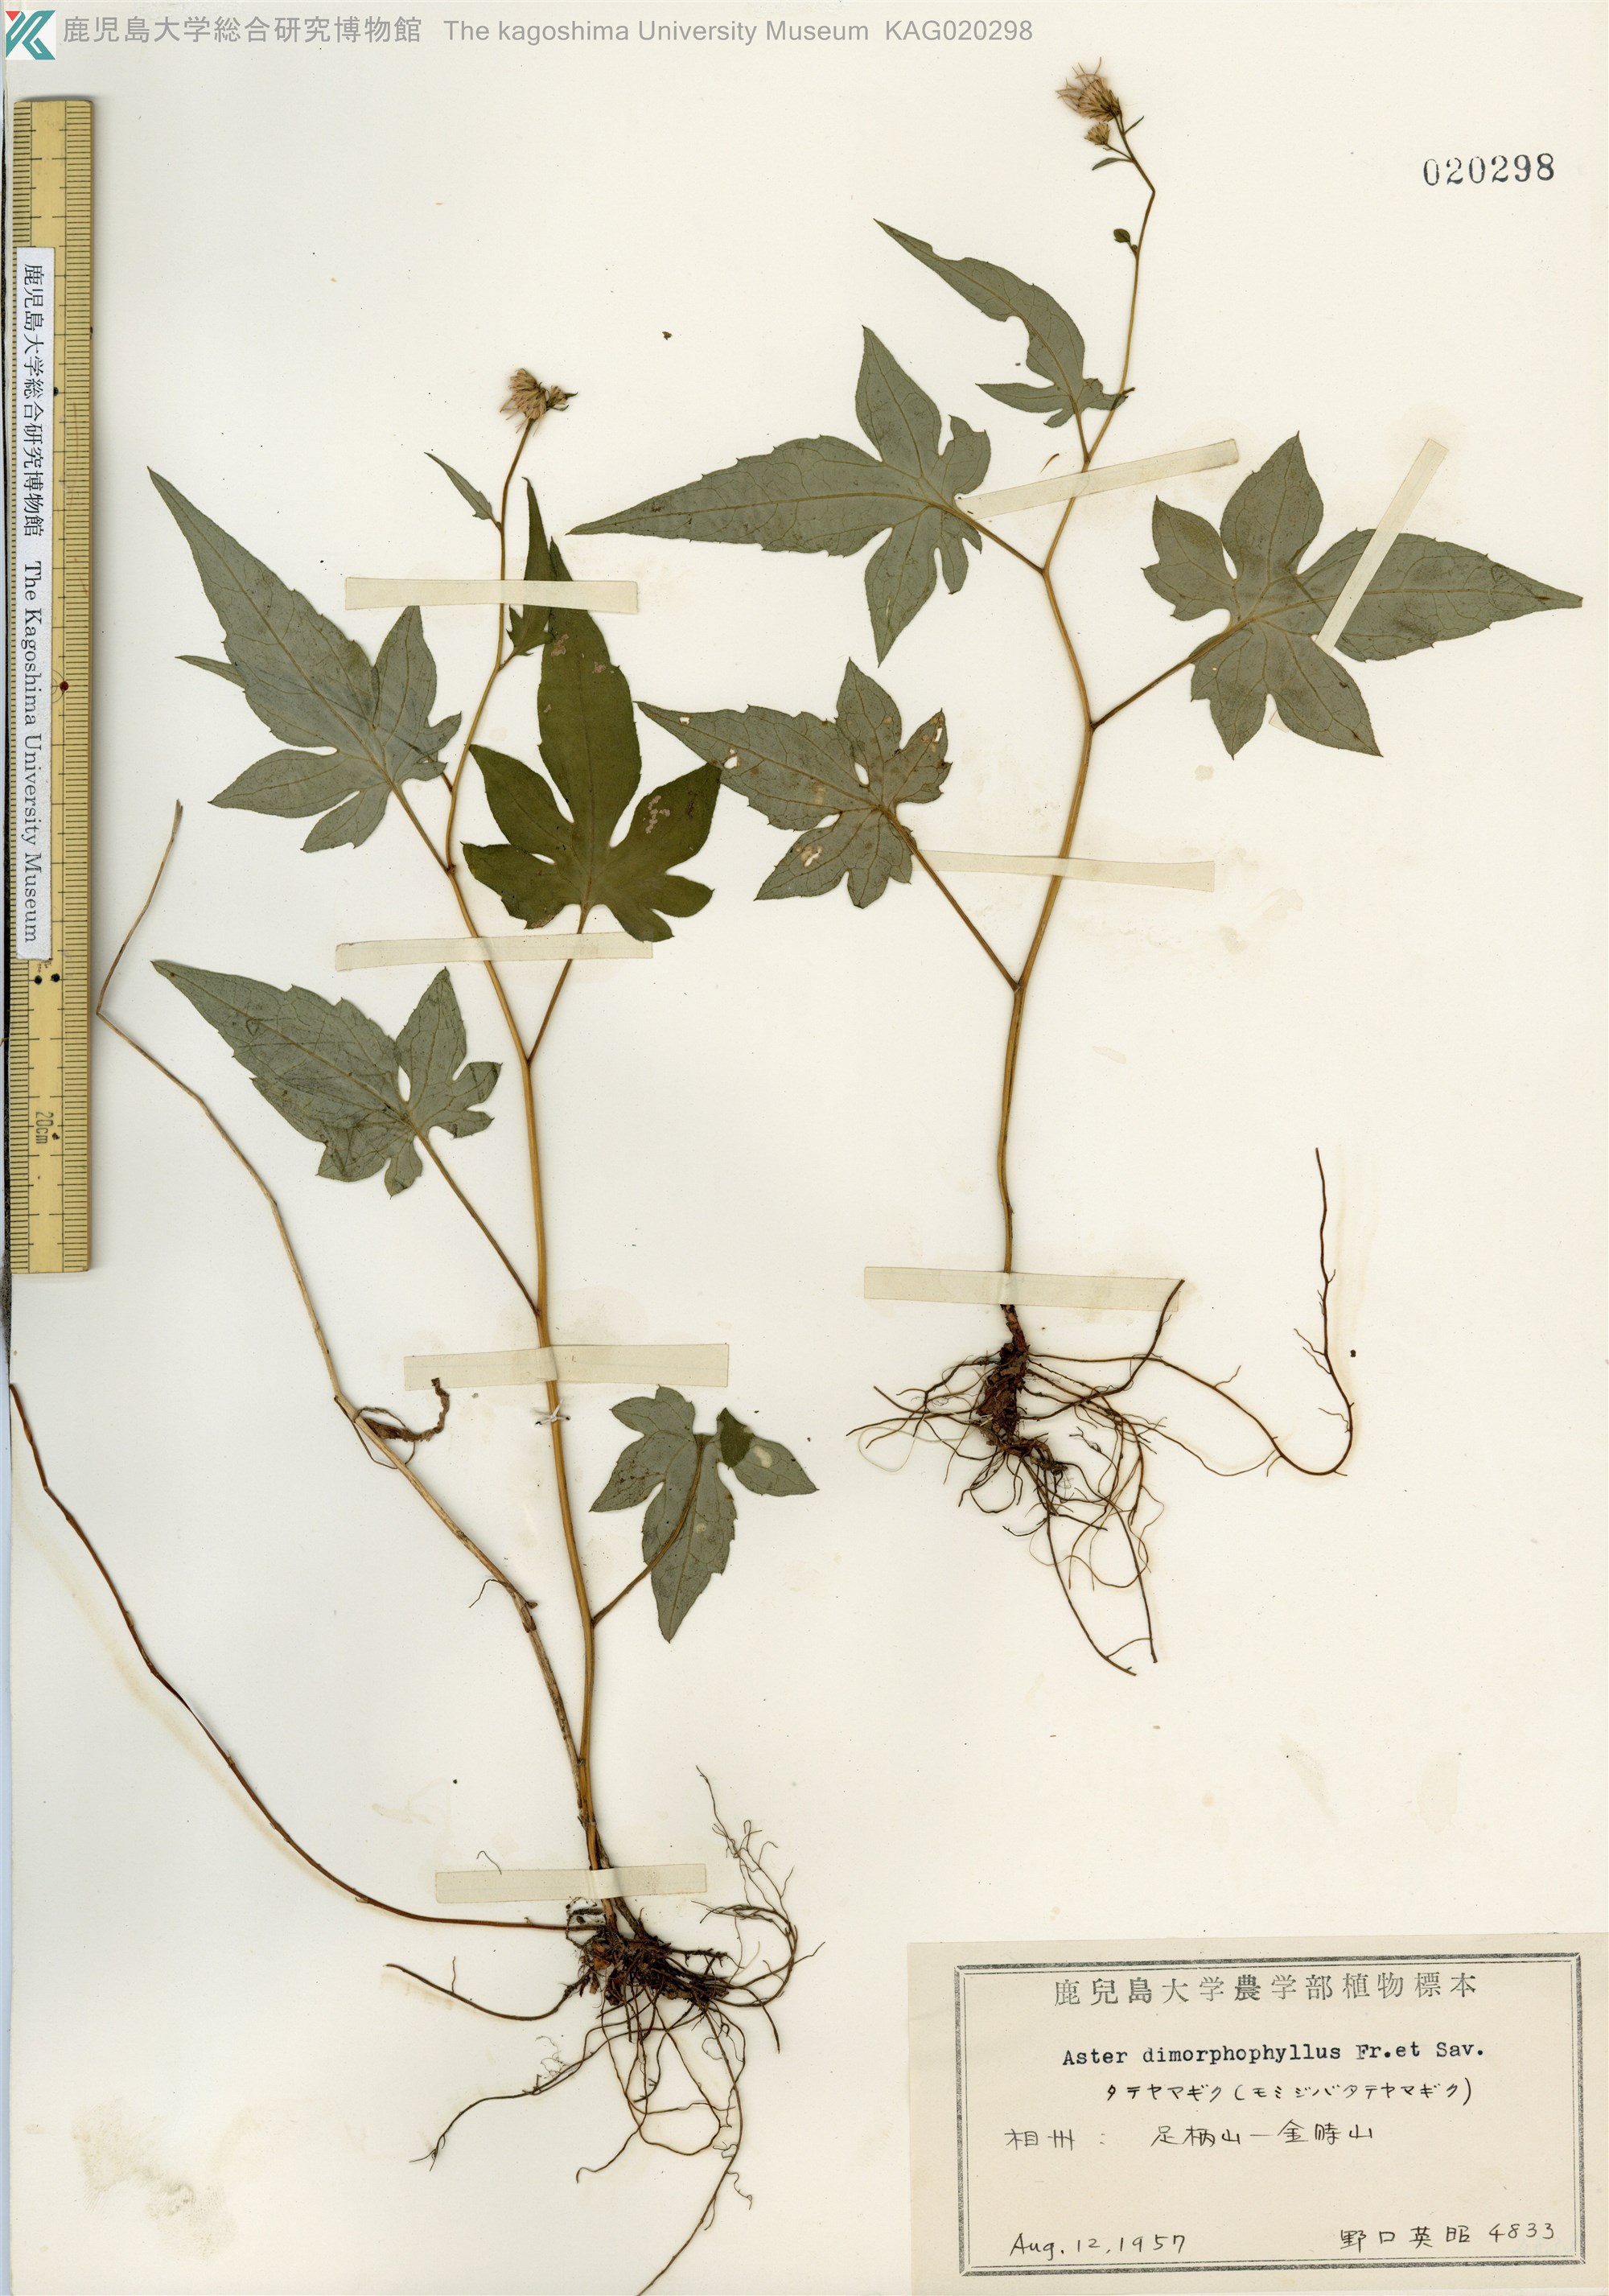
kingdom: Plantae
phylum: Tracheophyta
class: Magnoliopsida
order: Asterales
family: Asteraceae
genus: Cardiagyris
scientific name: Cardiagyris dimorphophylla
